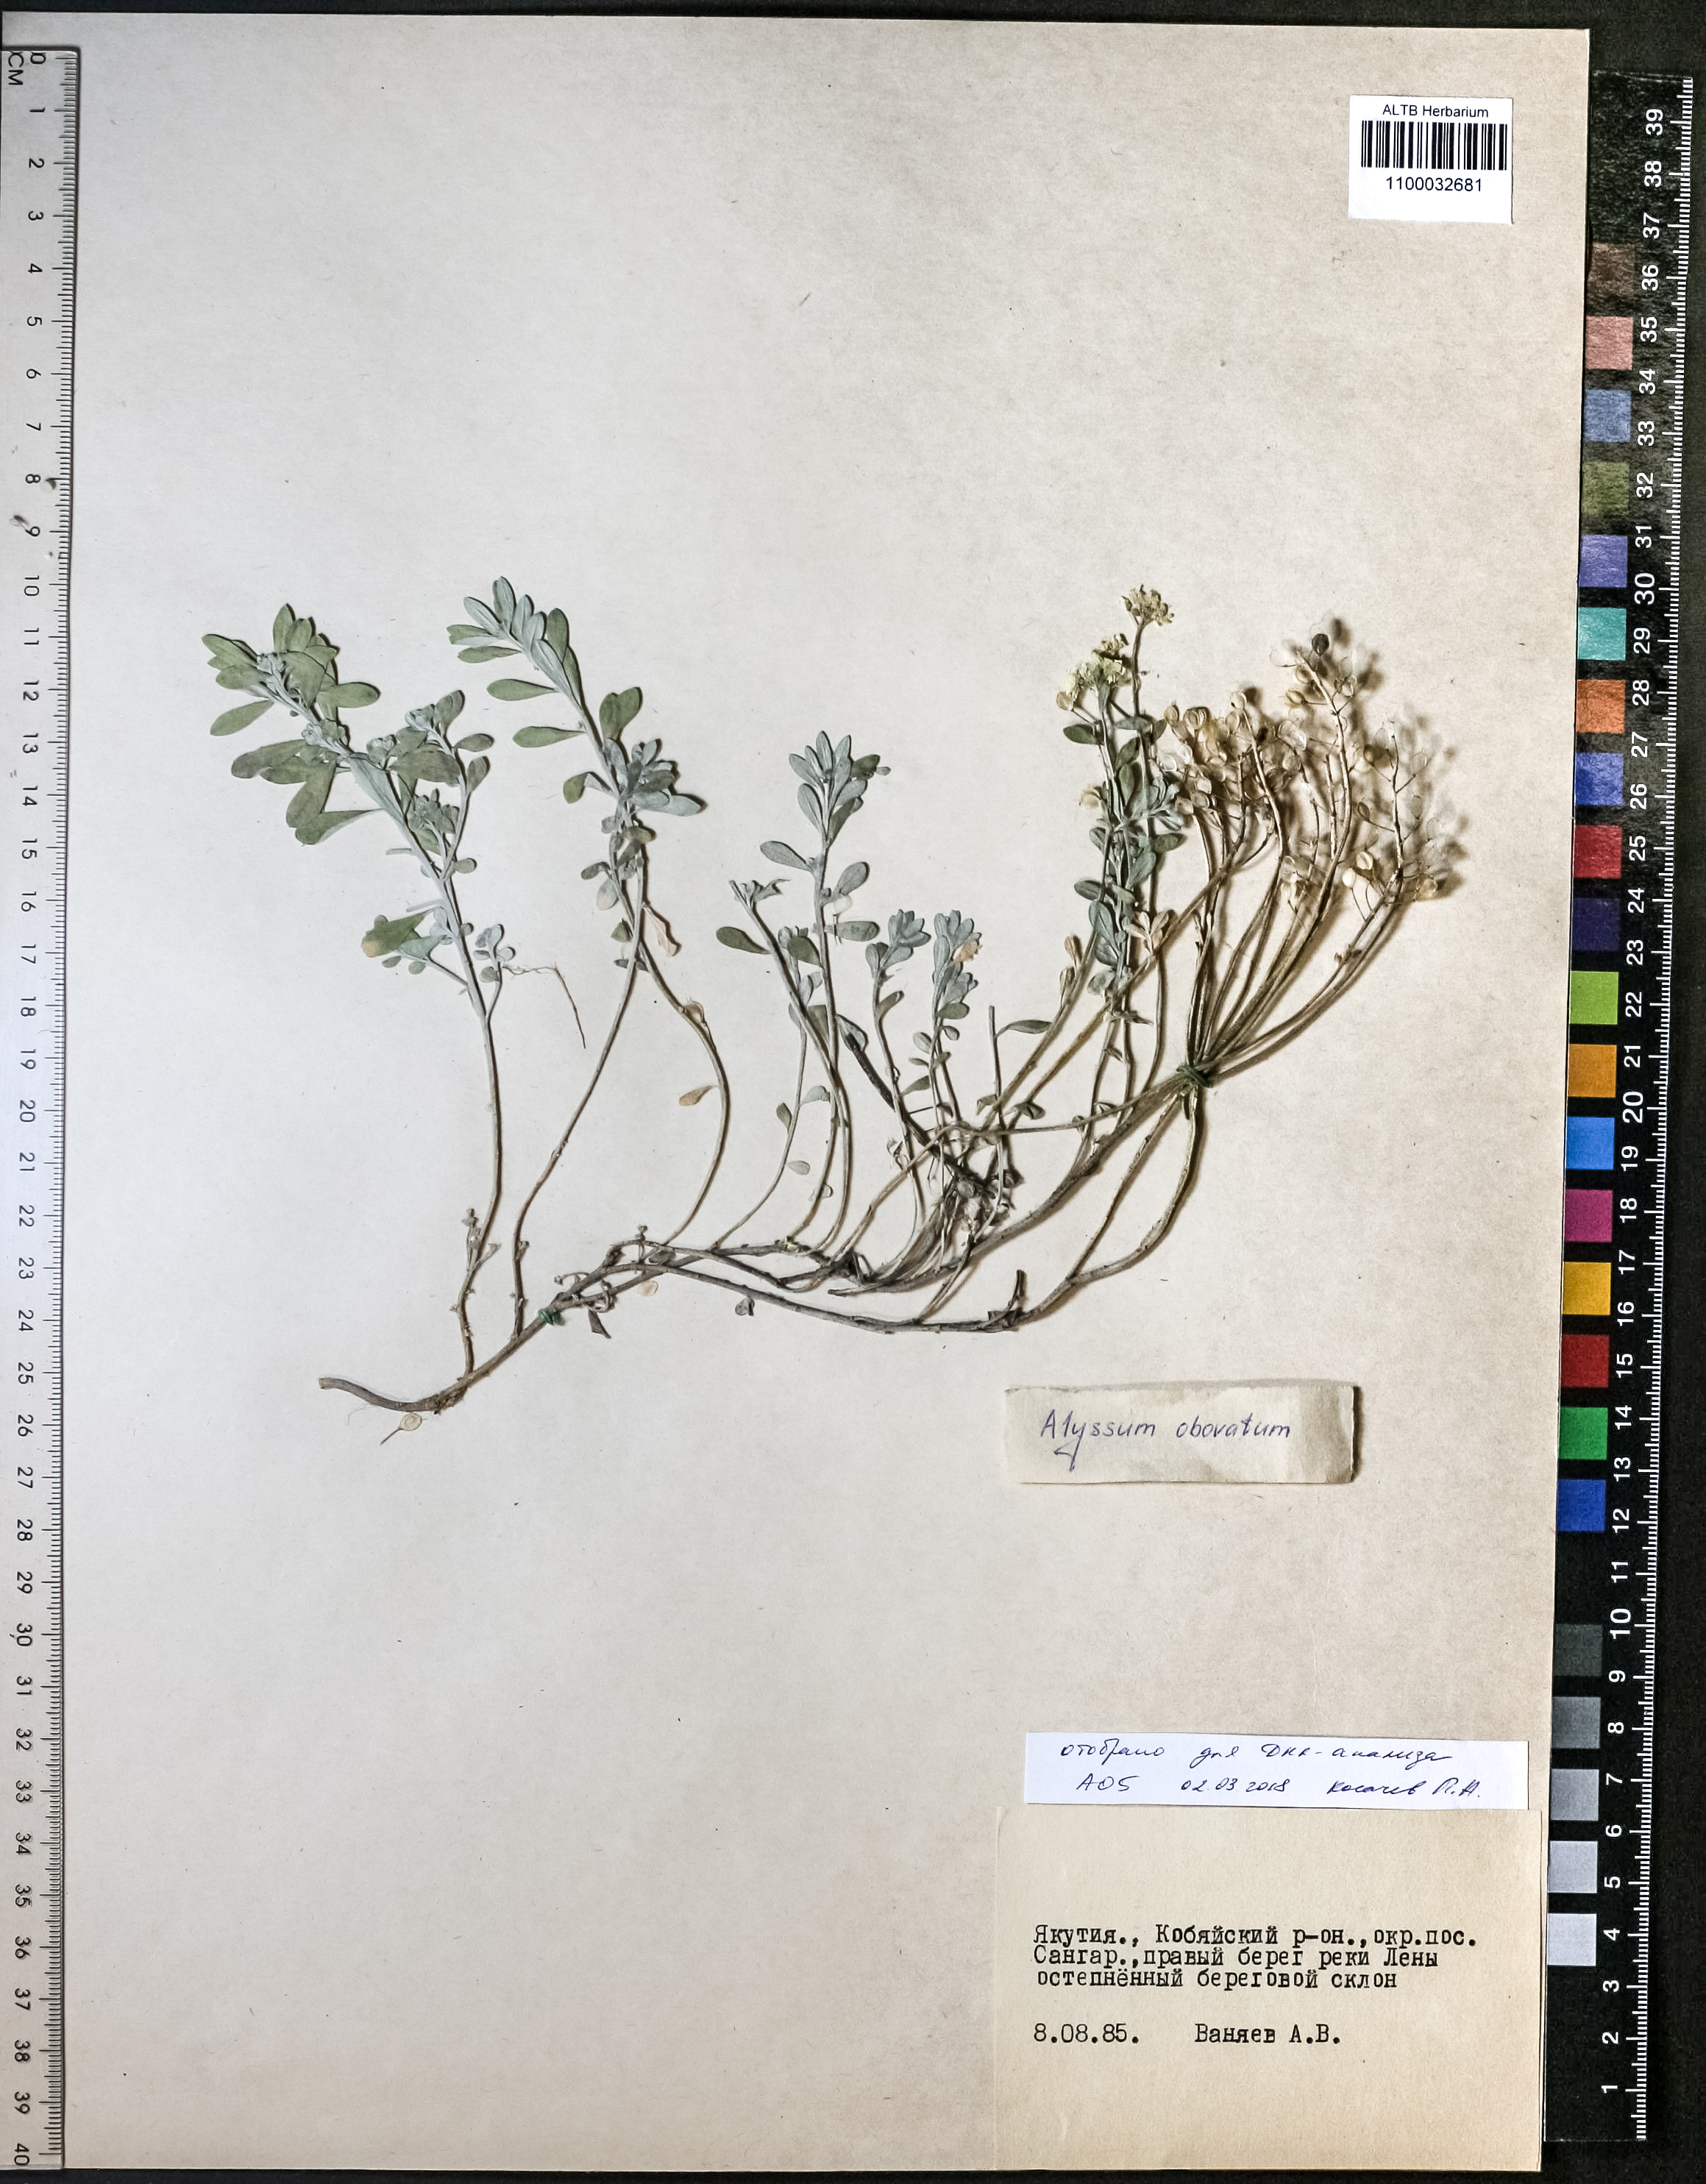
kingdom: Plantae
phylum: Tracheophyta
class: Magnoliopsida
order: Brassicales
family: Brassicaceae
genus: Odontarrhena
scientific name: Odontarrhena obovata
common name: American alyssum
